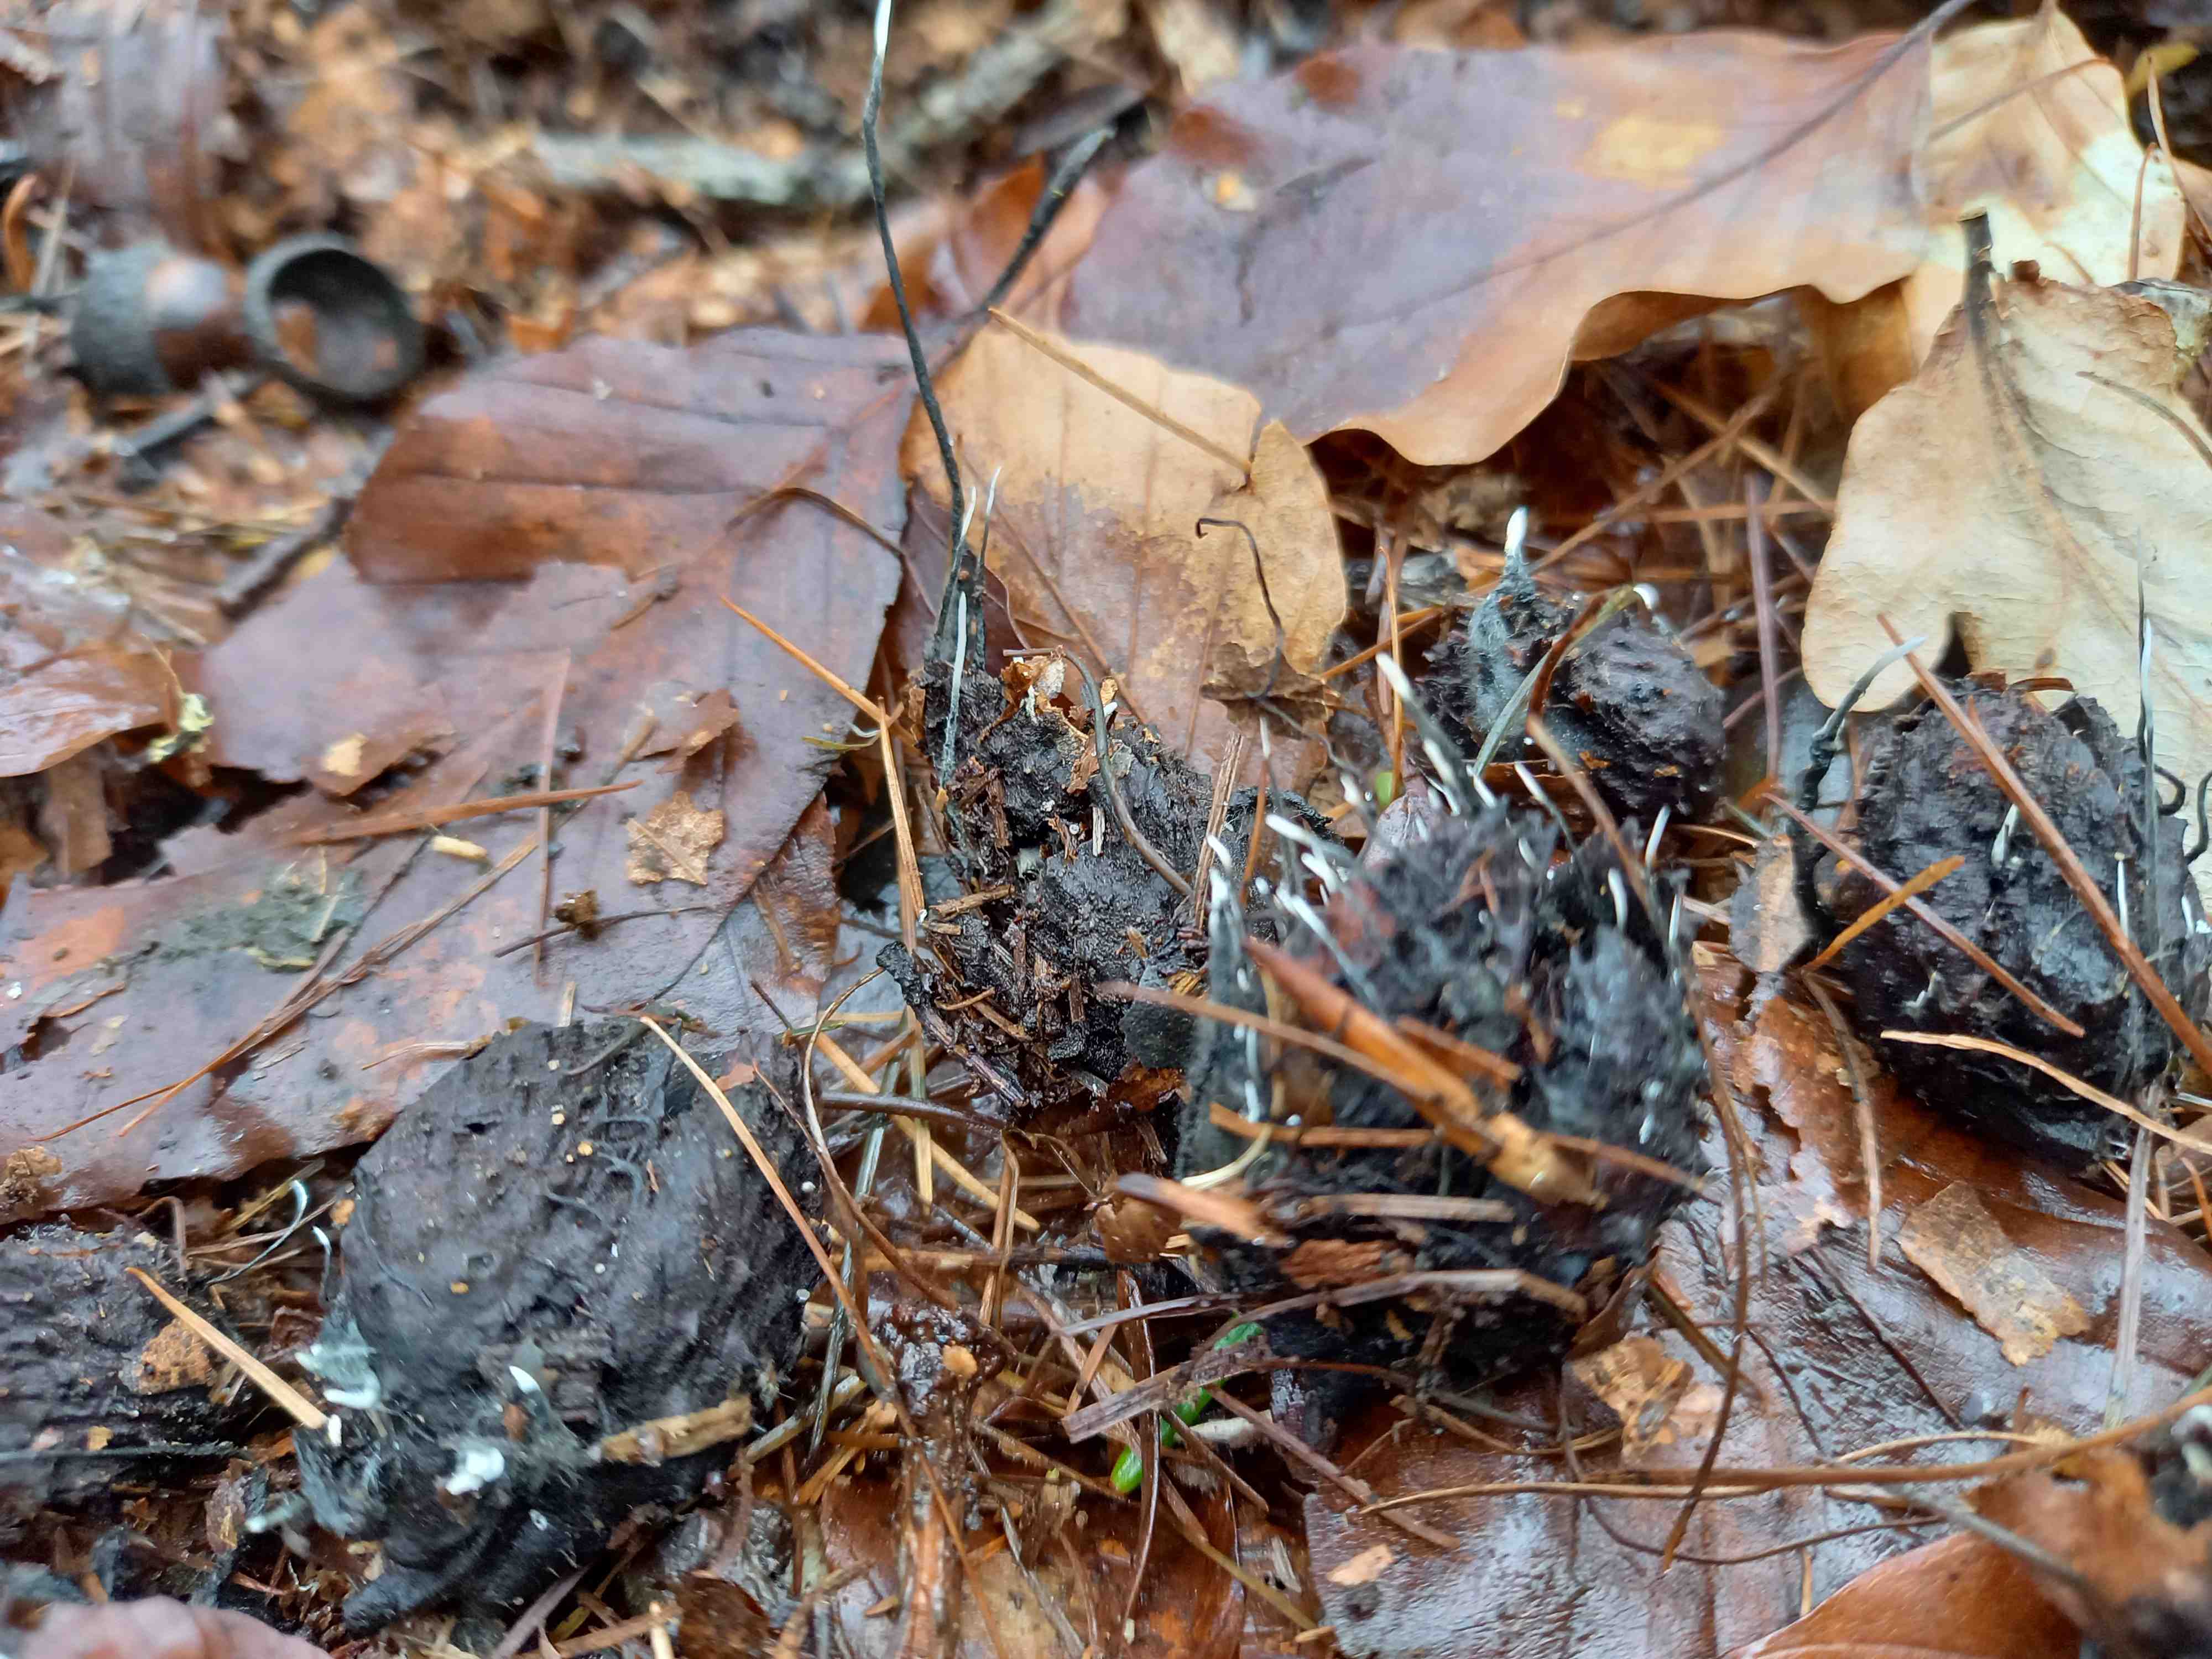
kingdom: Fungi
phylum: Ascomycota
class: Sordariomycetes
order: Xylariales
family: Xylariaceae
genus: Xylaria
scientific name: Xylaria carpophila
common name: bogskål-stødsvamp
